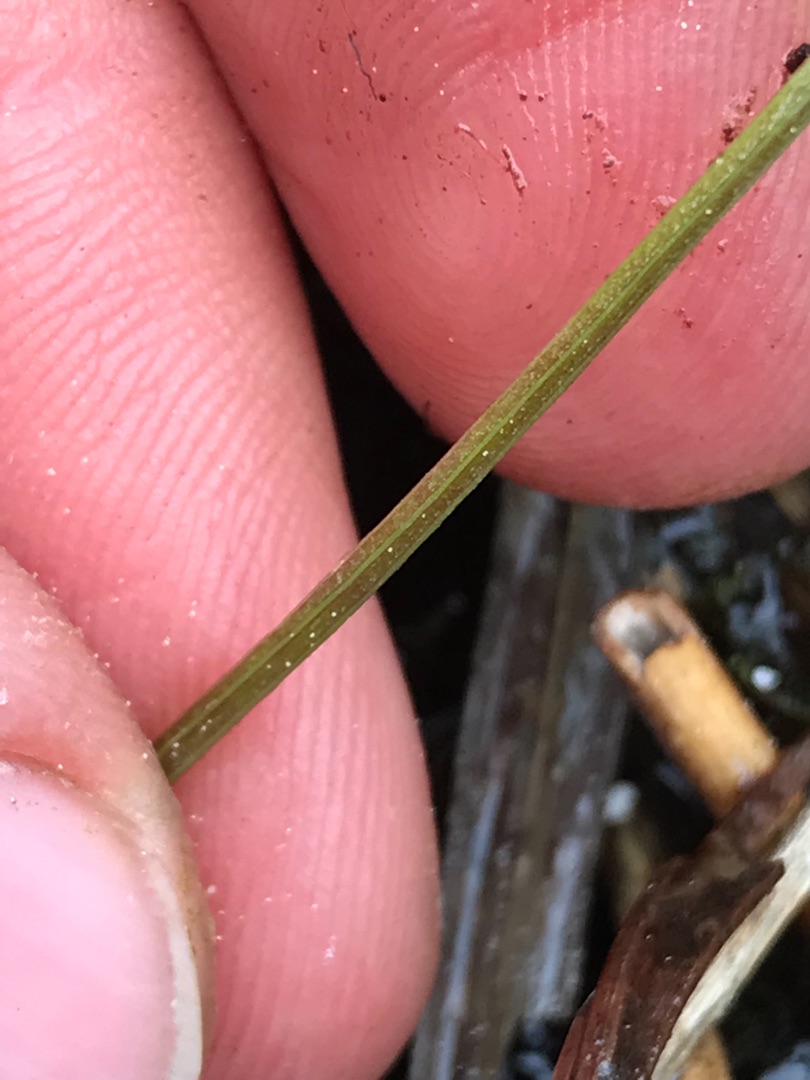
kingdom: Plantae
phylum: Tracheophyta
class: Magnoliopsida
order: Apiales
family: Apiaceae
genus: Selinum
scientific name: Selinum carvifolia
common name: Seline
